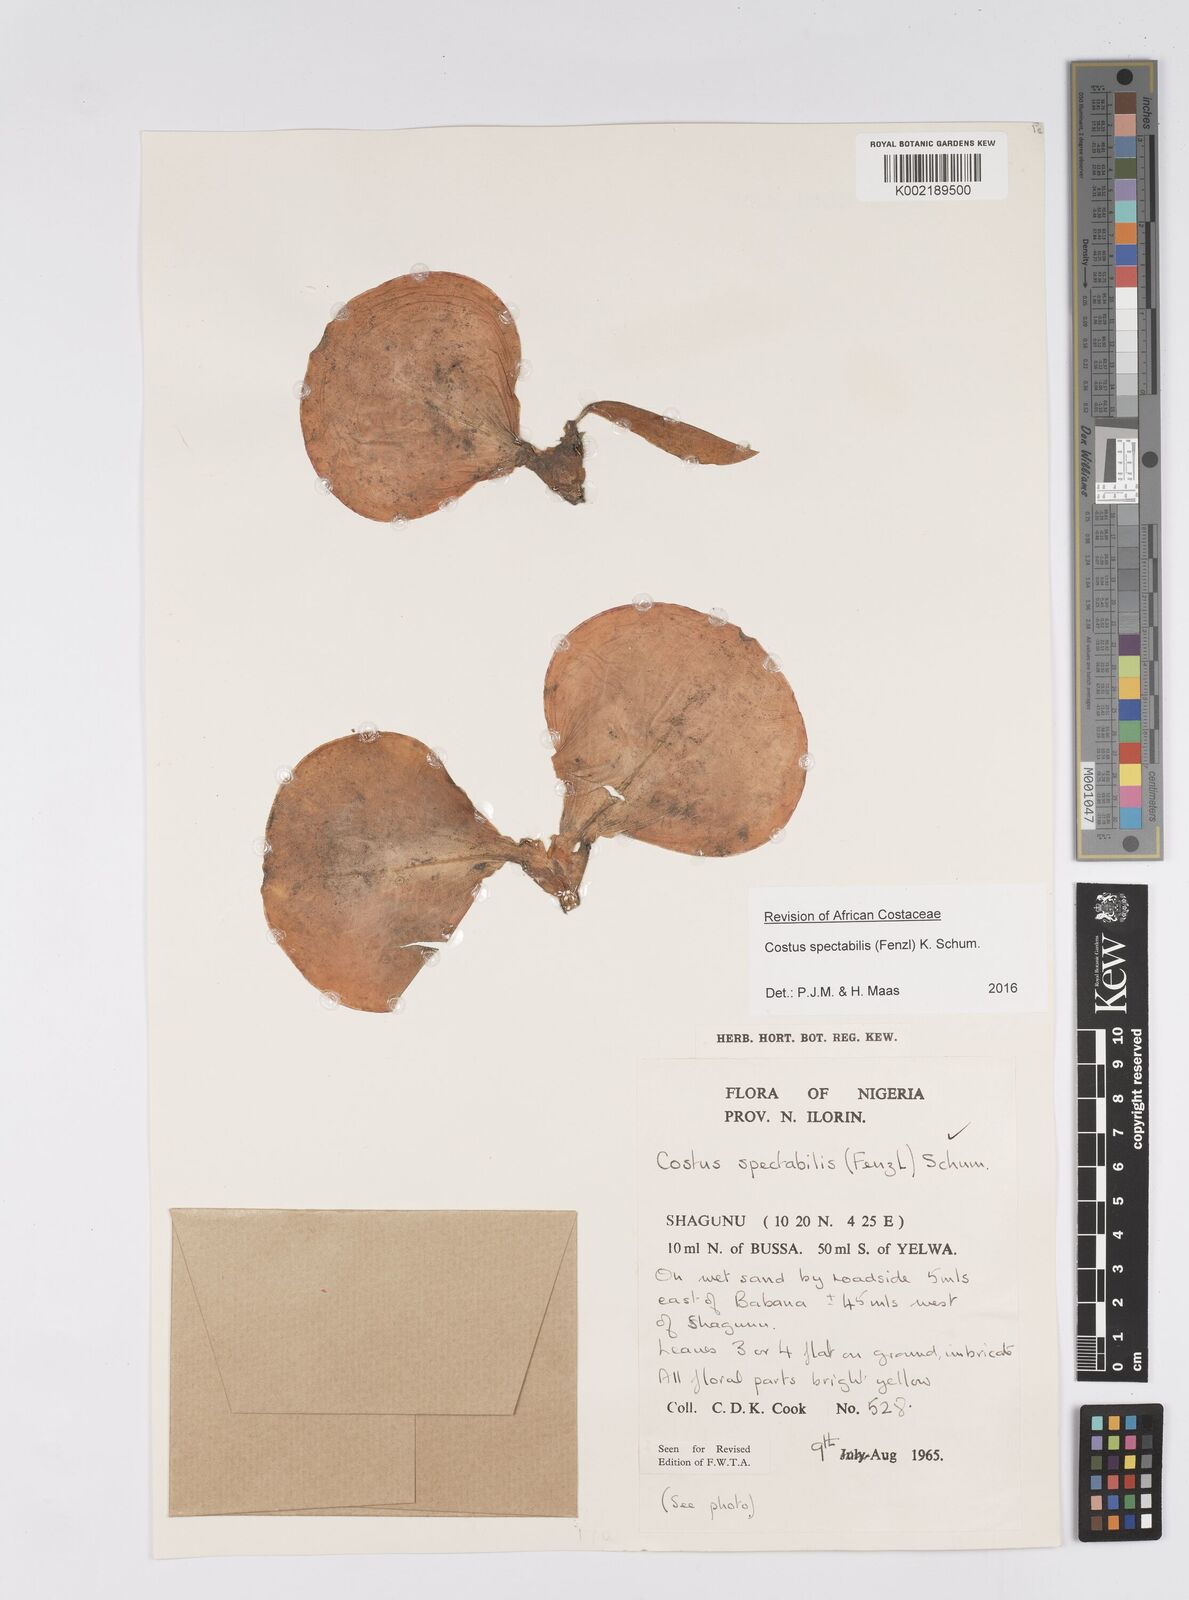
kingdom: Plantae
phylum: Tracheophyta
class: Liliopsida
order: Zingiberales
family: Costaceae
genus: Costus
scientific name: Costus spectabilis
